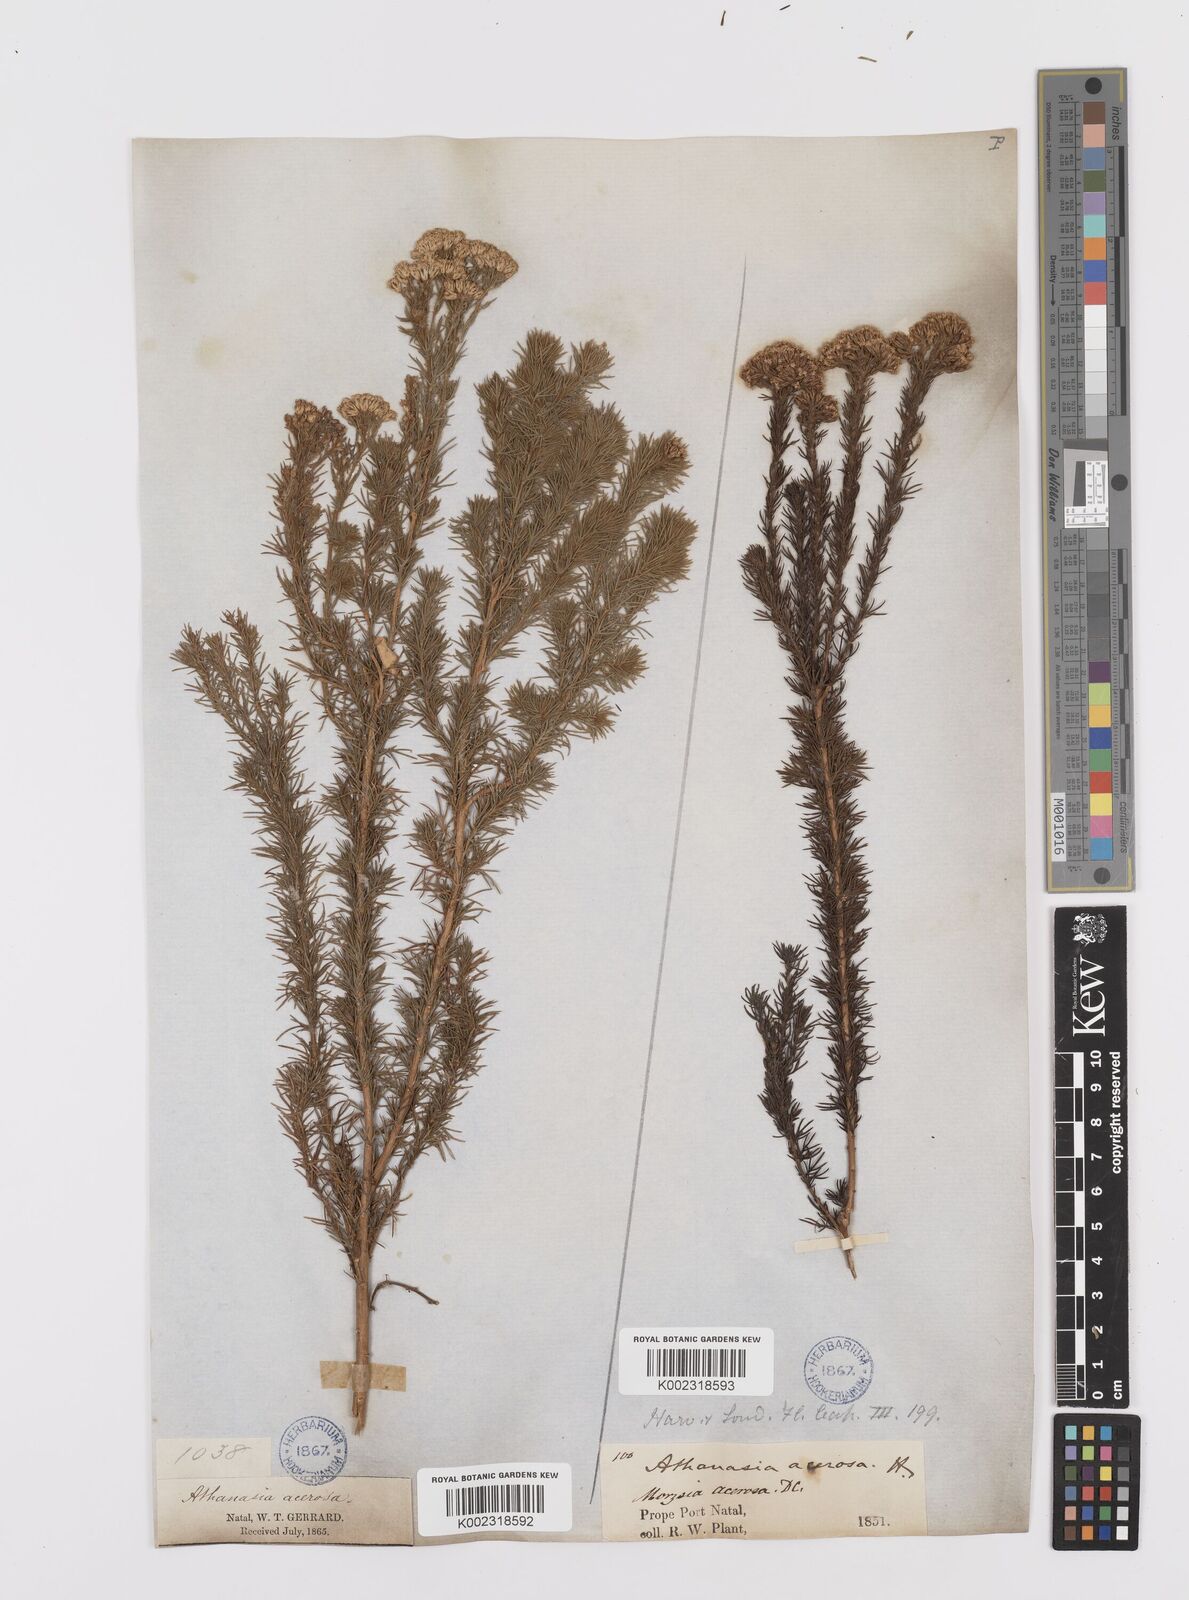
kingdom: Plantae
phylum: Tracheophyta
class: Magnoliopsida
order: Asterales
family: Asteraceae
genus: Phymaspermum
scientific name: Phymaspermum acerosum
